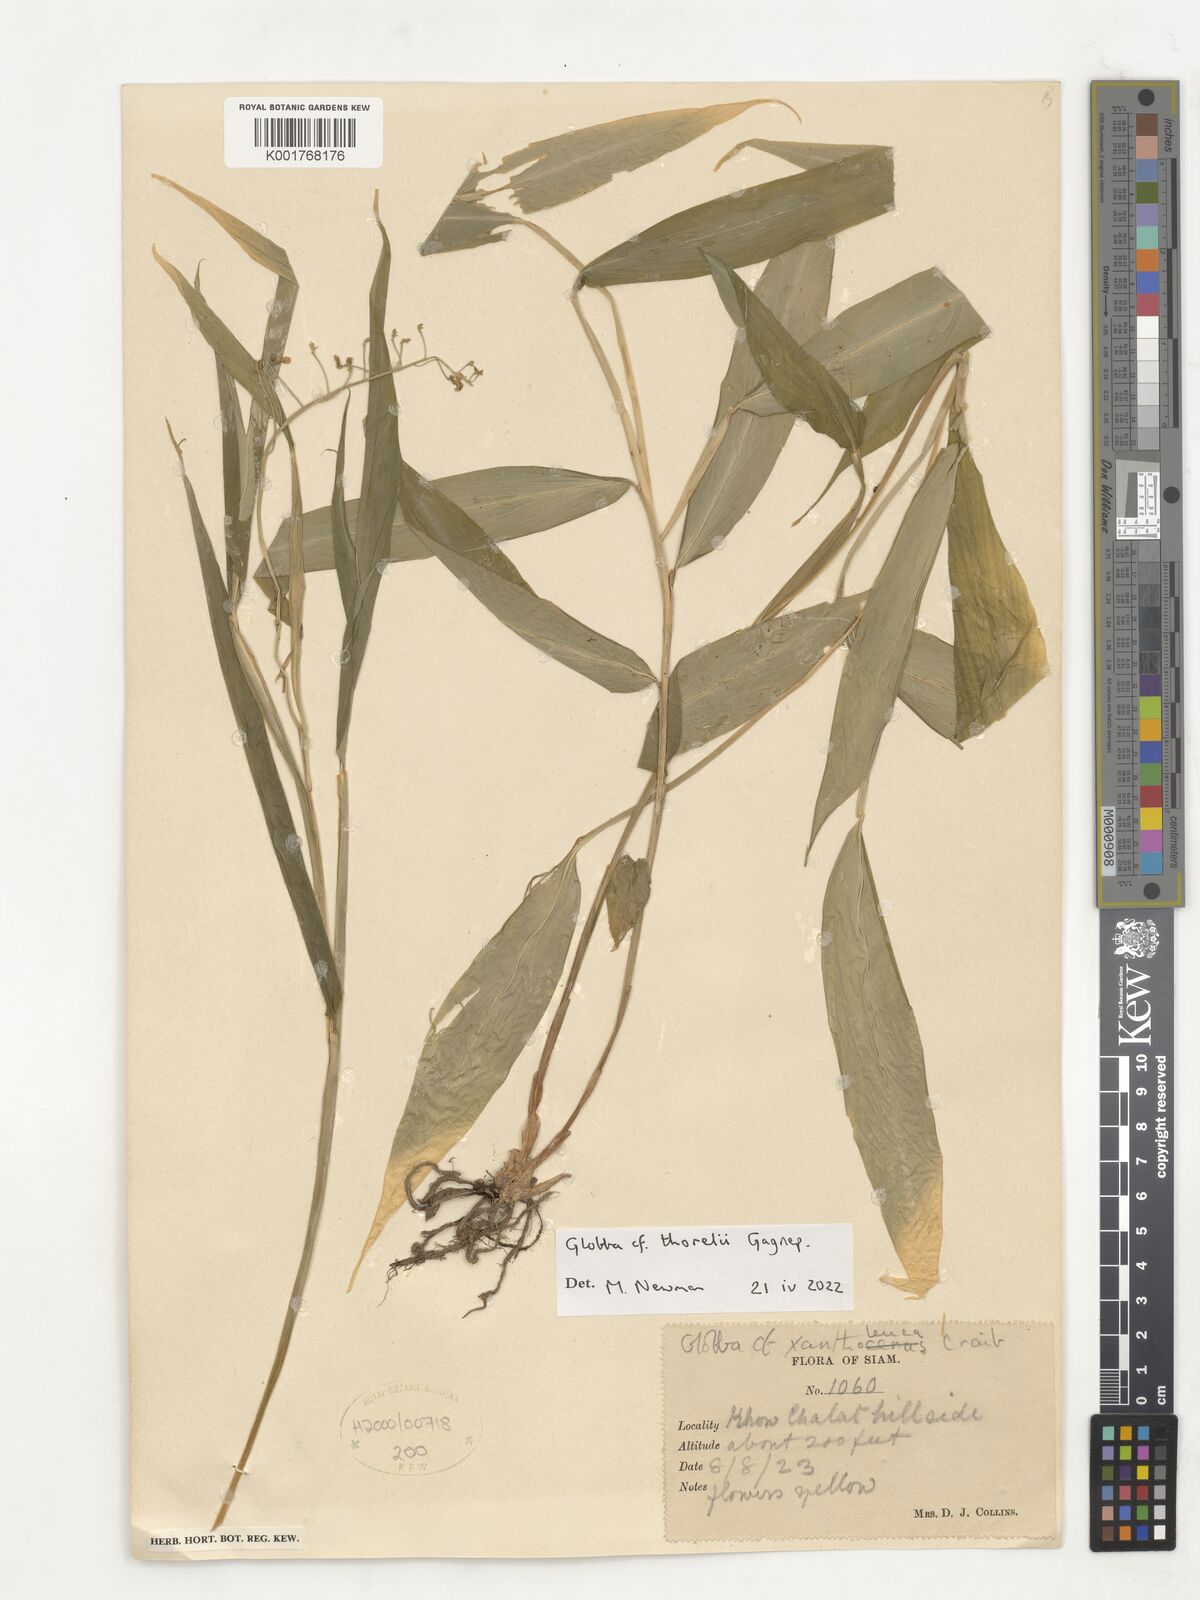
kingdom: Plantae
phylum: Tracheophyta
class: Liliopsida
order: Zingiberales
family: Zingiberaceae
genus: Globba
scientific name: Globba thorelii
